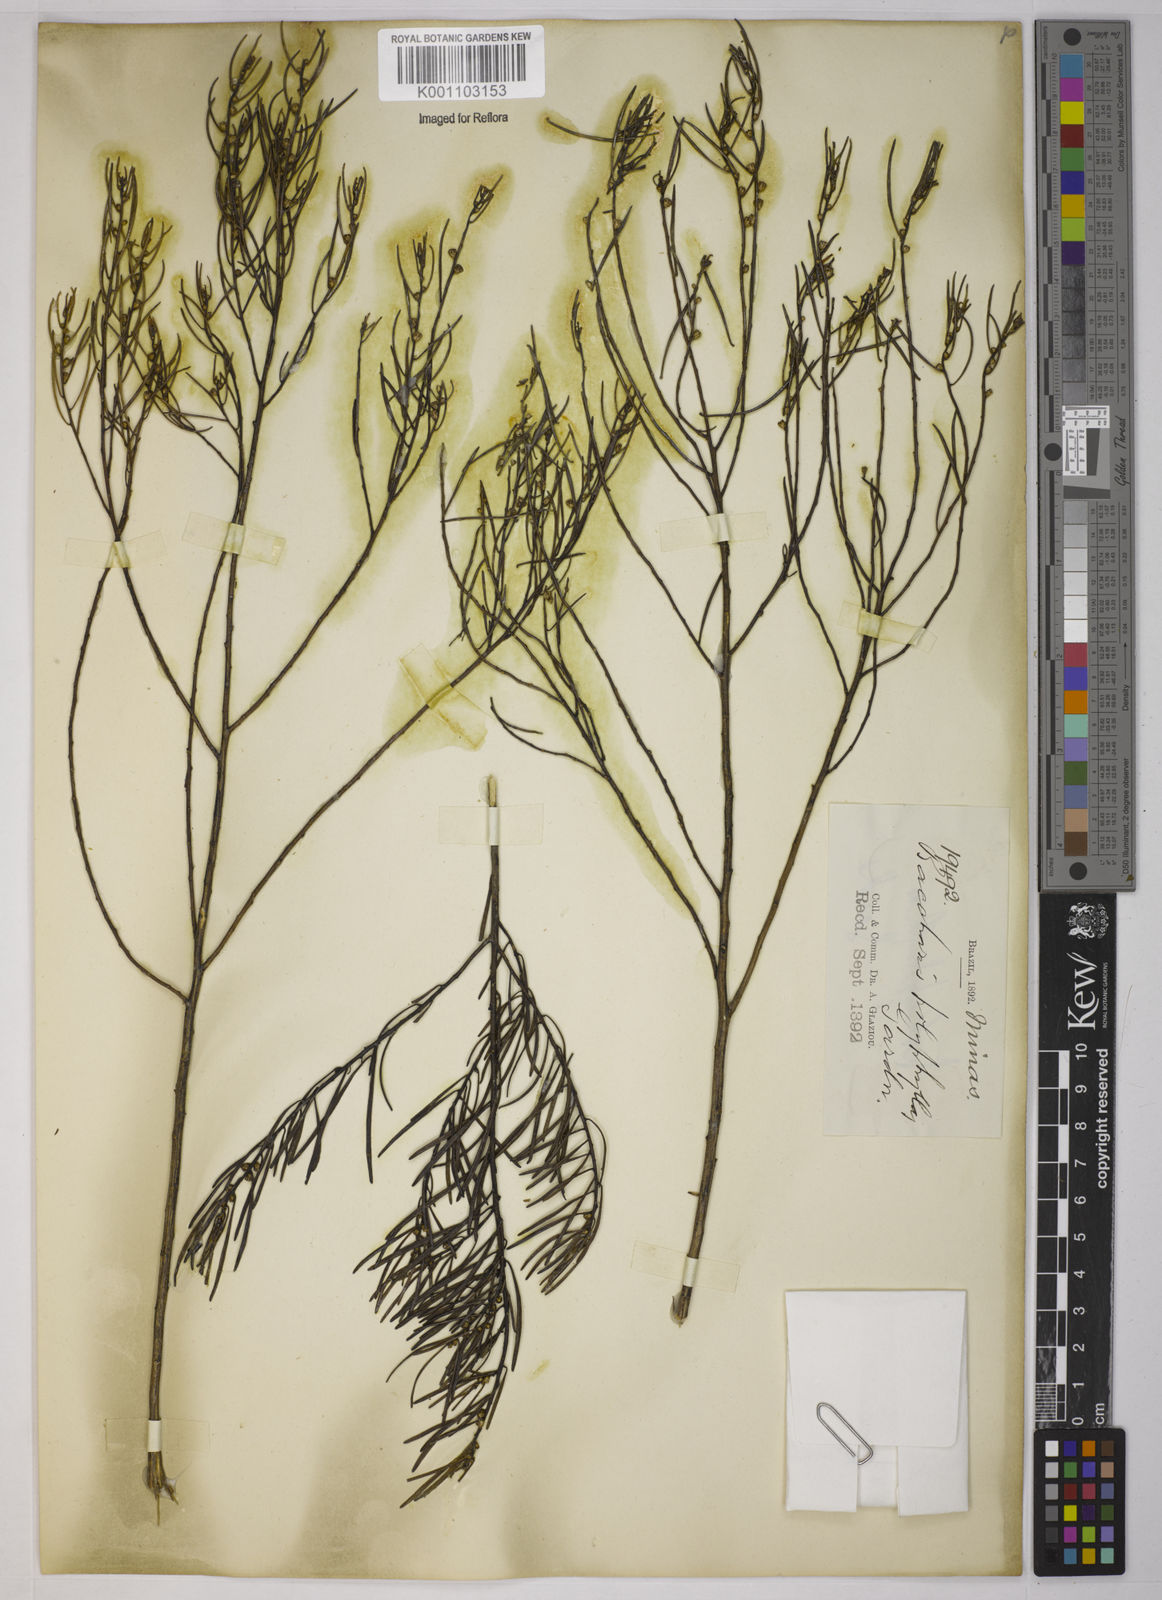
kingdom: Plantae
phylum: Tracheophyta
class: Magnoliopsida
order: Asterales
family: Asteraceae
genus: Baccharis
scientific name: Baccharis polyphylla
